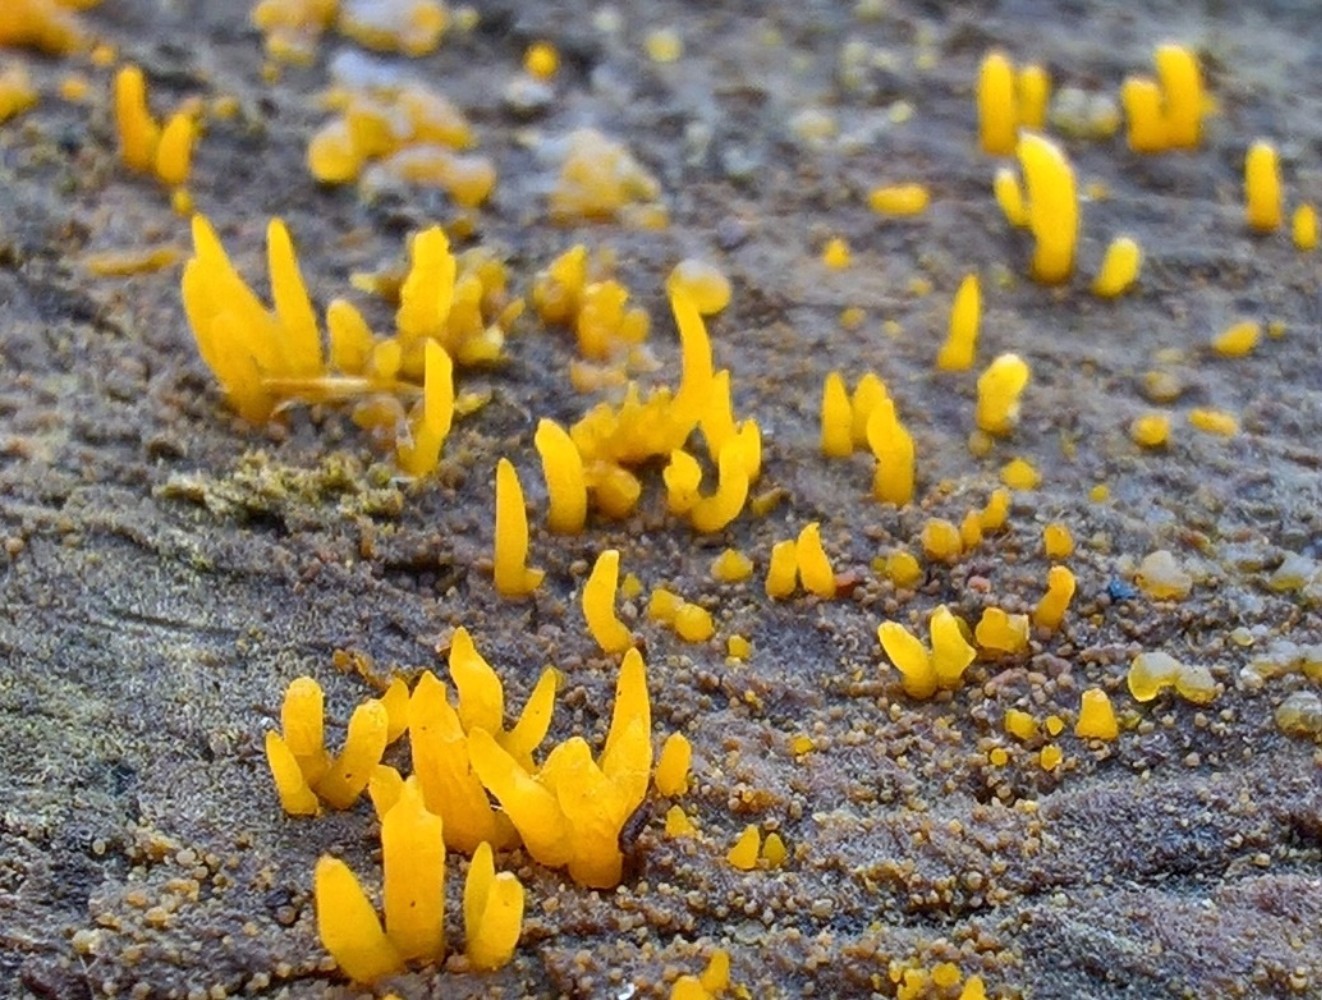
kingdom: Fungi
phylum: Basidiomycota
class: Dacrymycetes
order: Dacrymycetales
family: Dacrymycetaceae
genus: Calocera
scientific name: Calocera cornea
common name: liden guldgaffel
